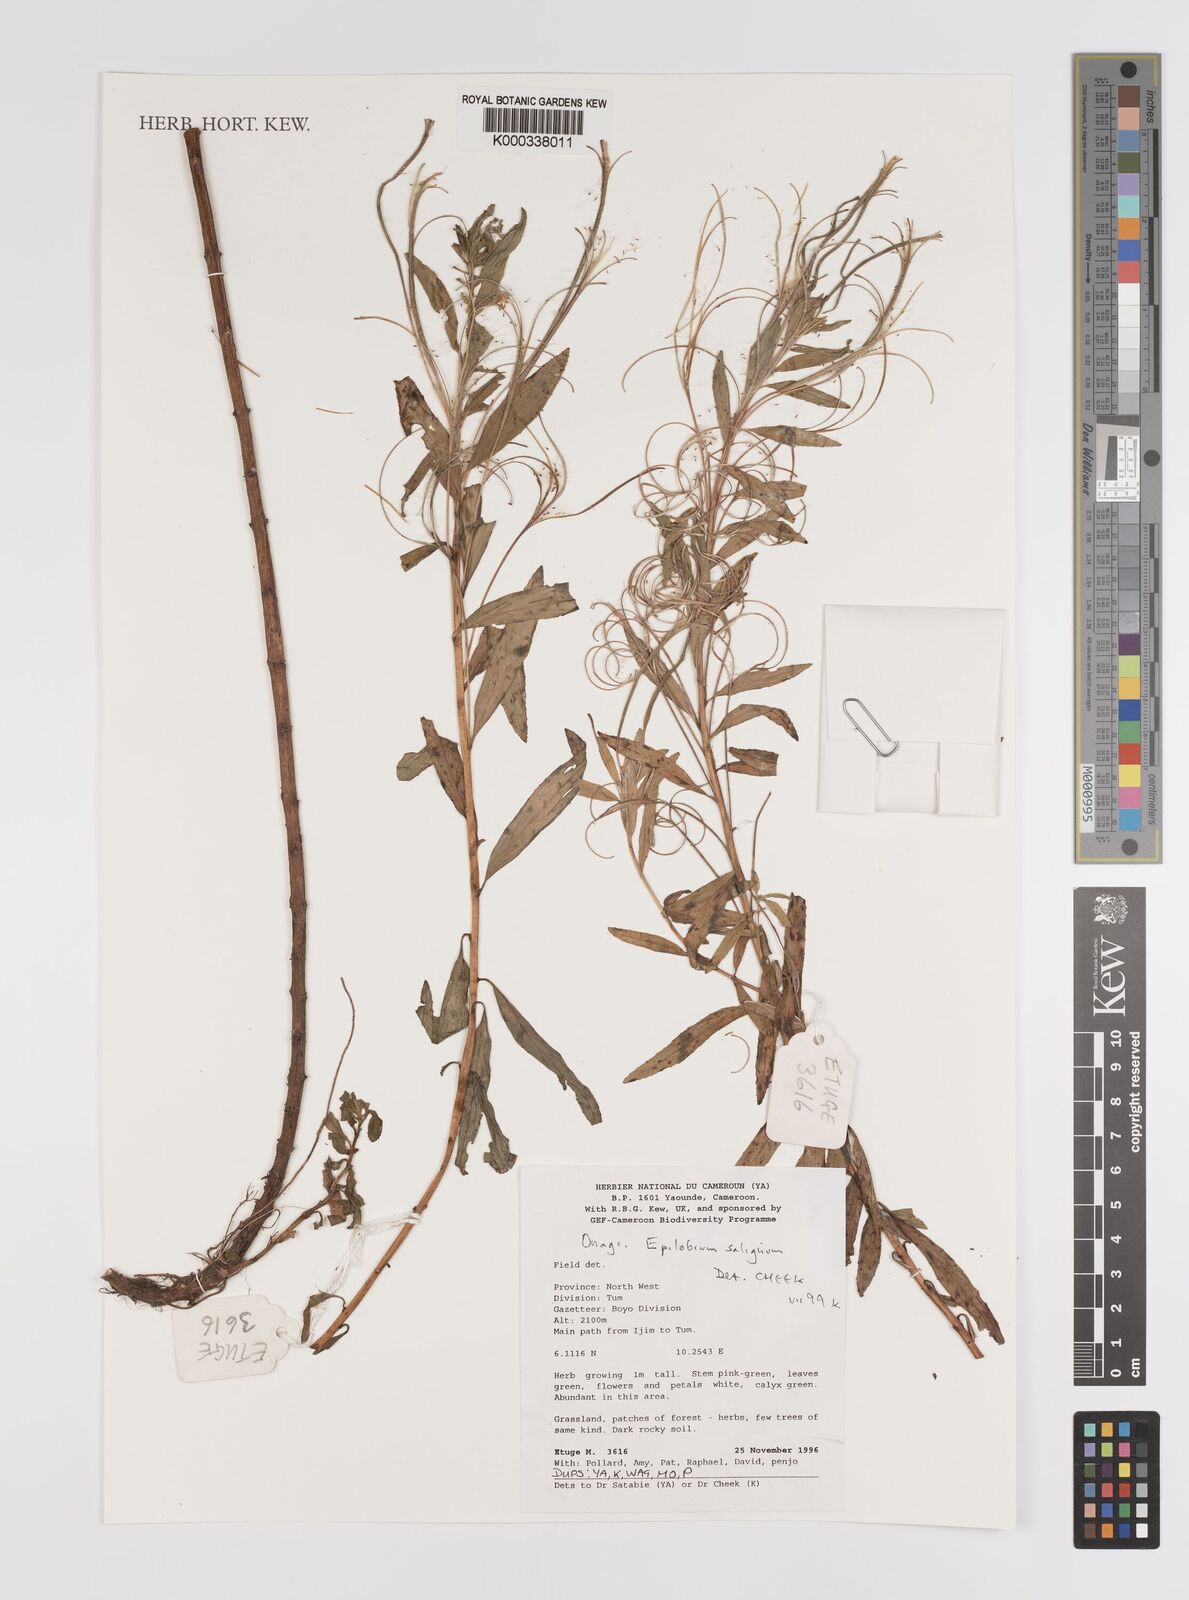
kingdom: Plantae
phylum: Tracheophyta
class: Magnoliopsida
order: Myrtales
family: Onagraceae
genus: Epilobium
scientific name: Epilobium salignum
